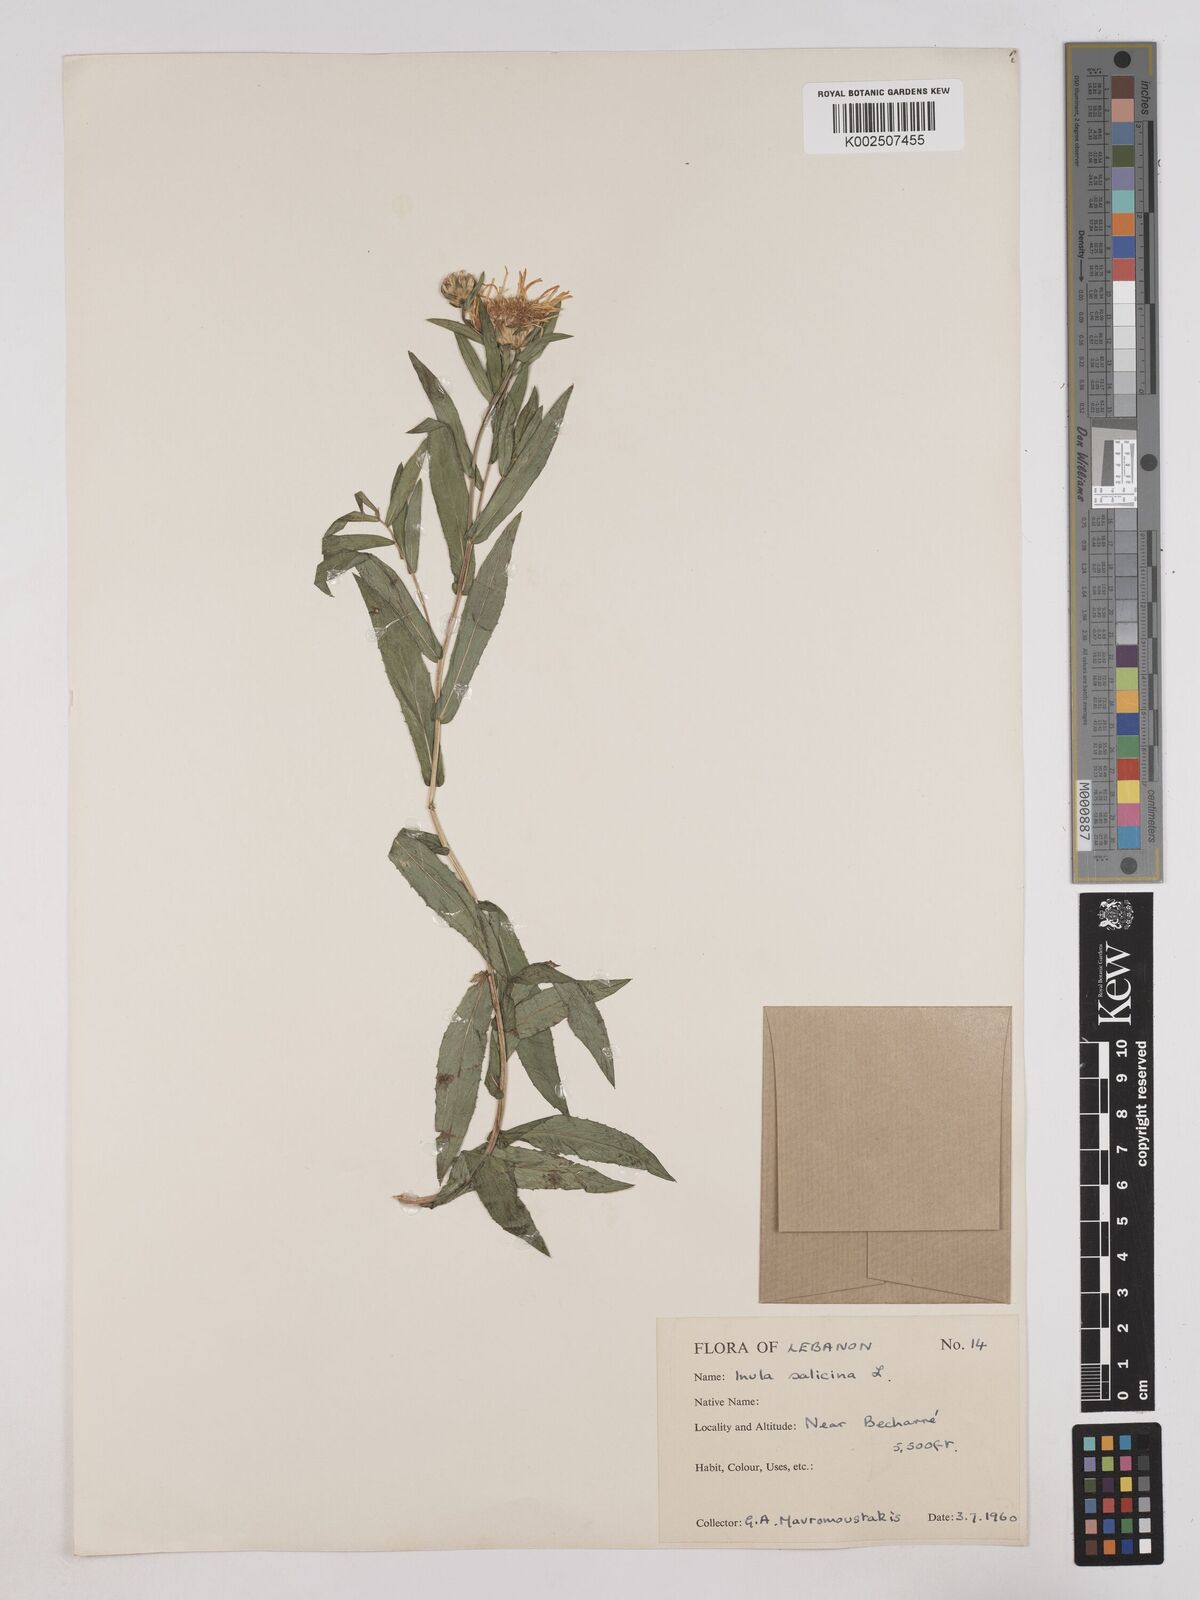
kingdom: Plantae
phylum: Tracheophyta
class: Magnoliopsida
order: Asterales
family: Asteraceae
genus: Pentanema
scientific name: Pentanema salicinum
